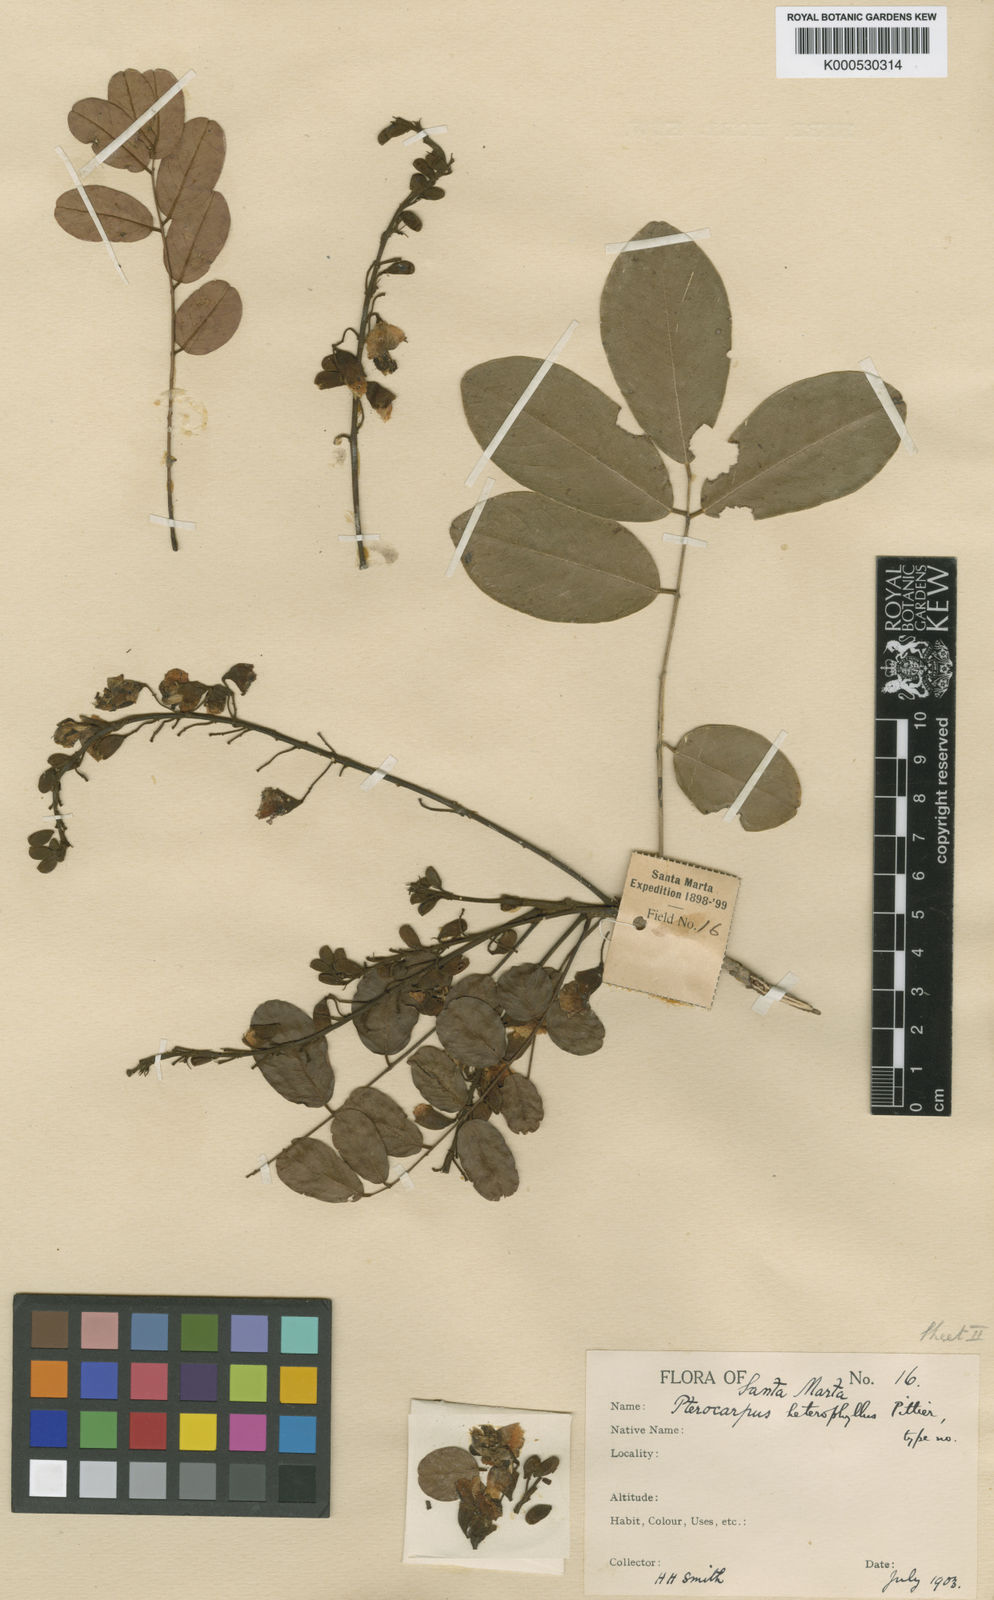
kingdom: Plantae
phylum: Tracheophyta
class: Magnoliopsida
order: Fabales
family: Fabaceae
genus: Pterocarpus
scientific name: Pterocarpus acapulcensis
